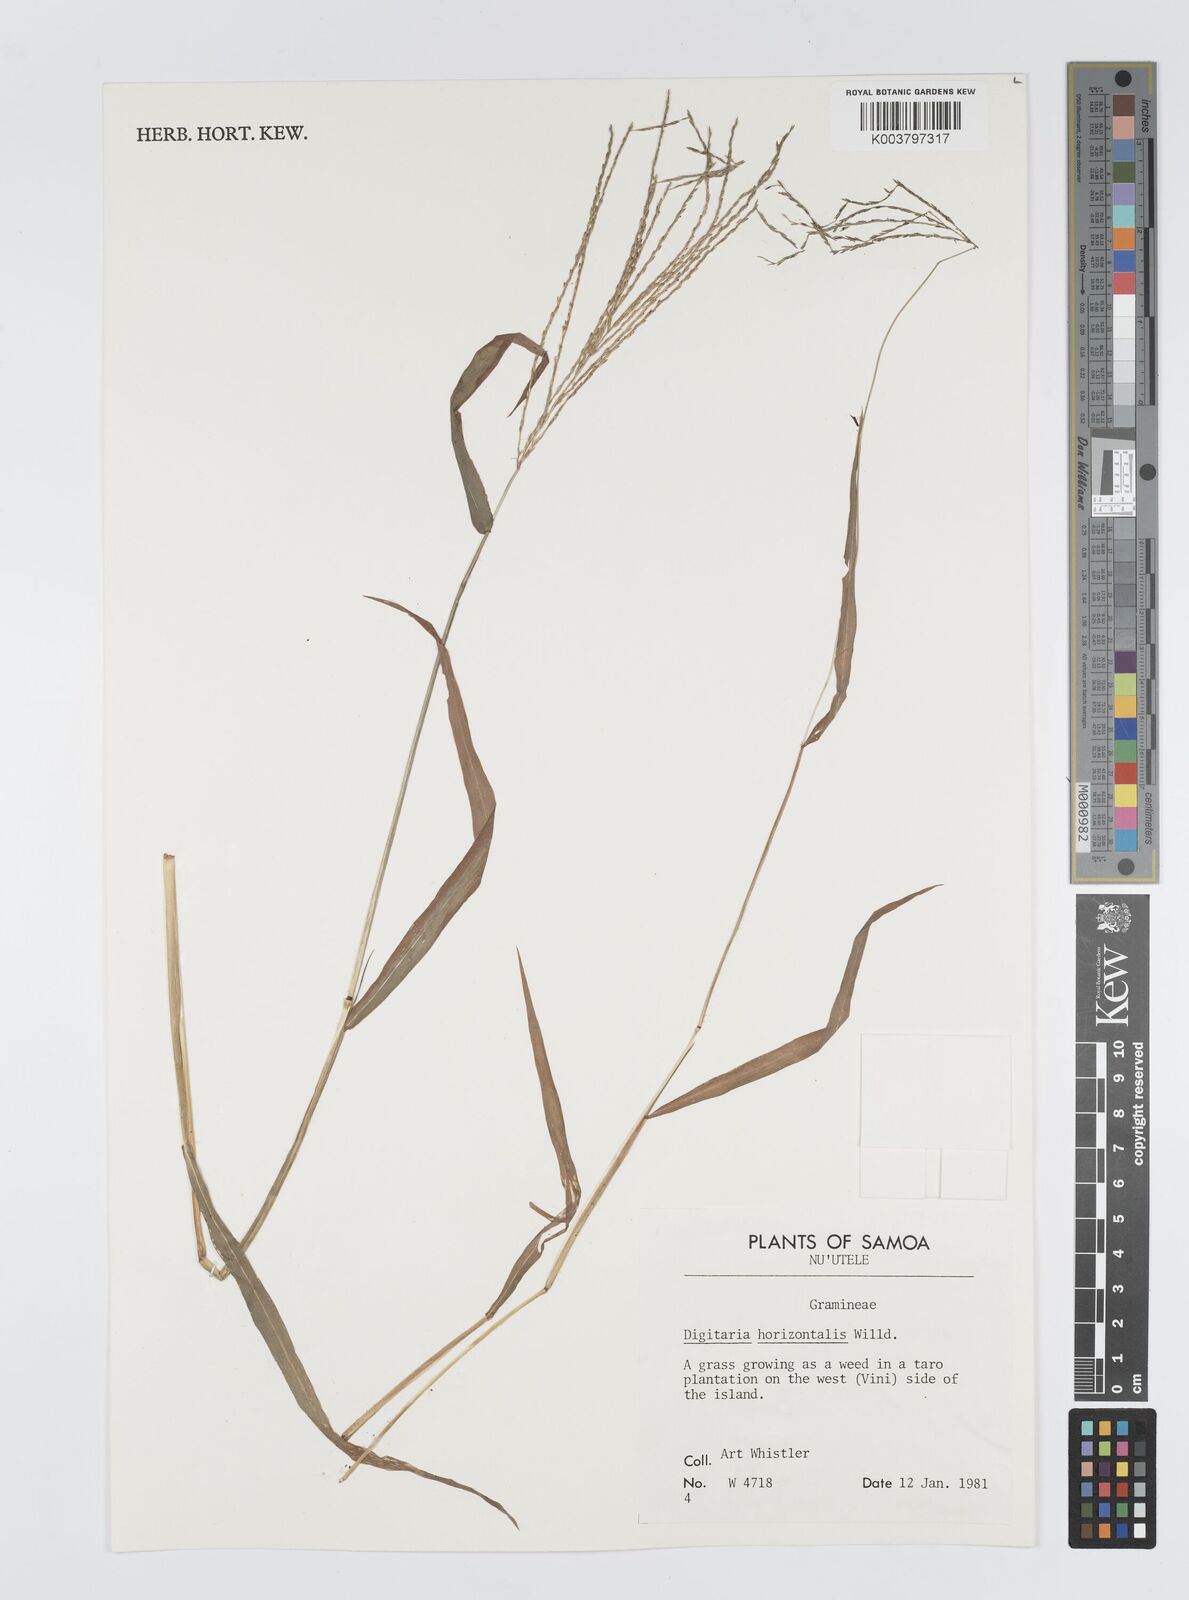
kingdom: Plantae
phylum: Tracheophyta
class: Liliopsida
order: Poales
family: Poaceae
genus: Digitaria
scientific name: Digitaria horizontalis
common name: Jamaican crabgrass
